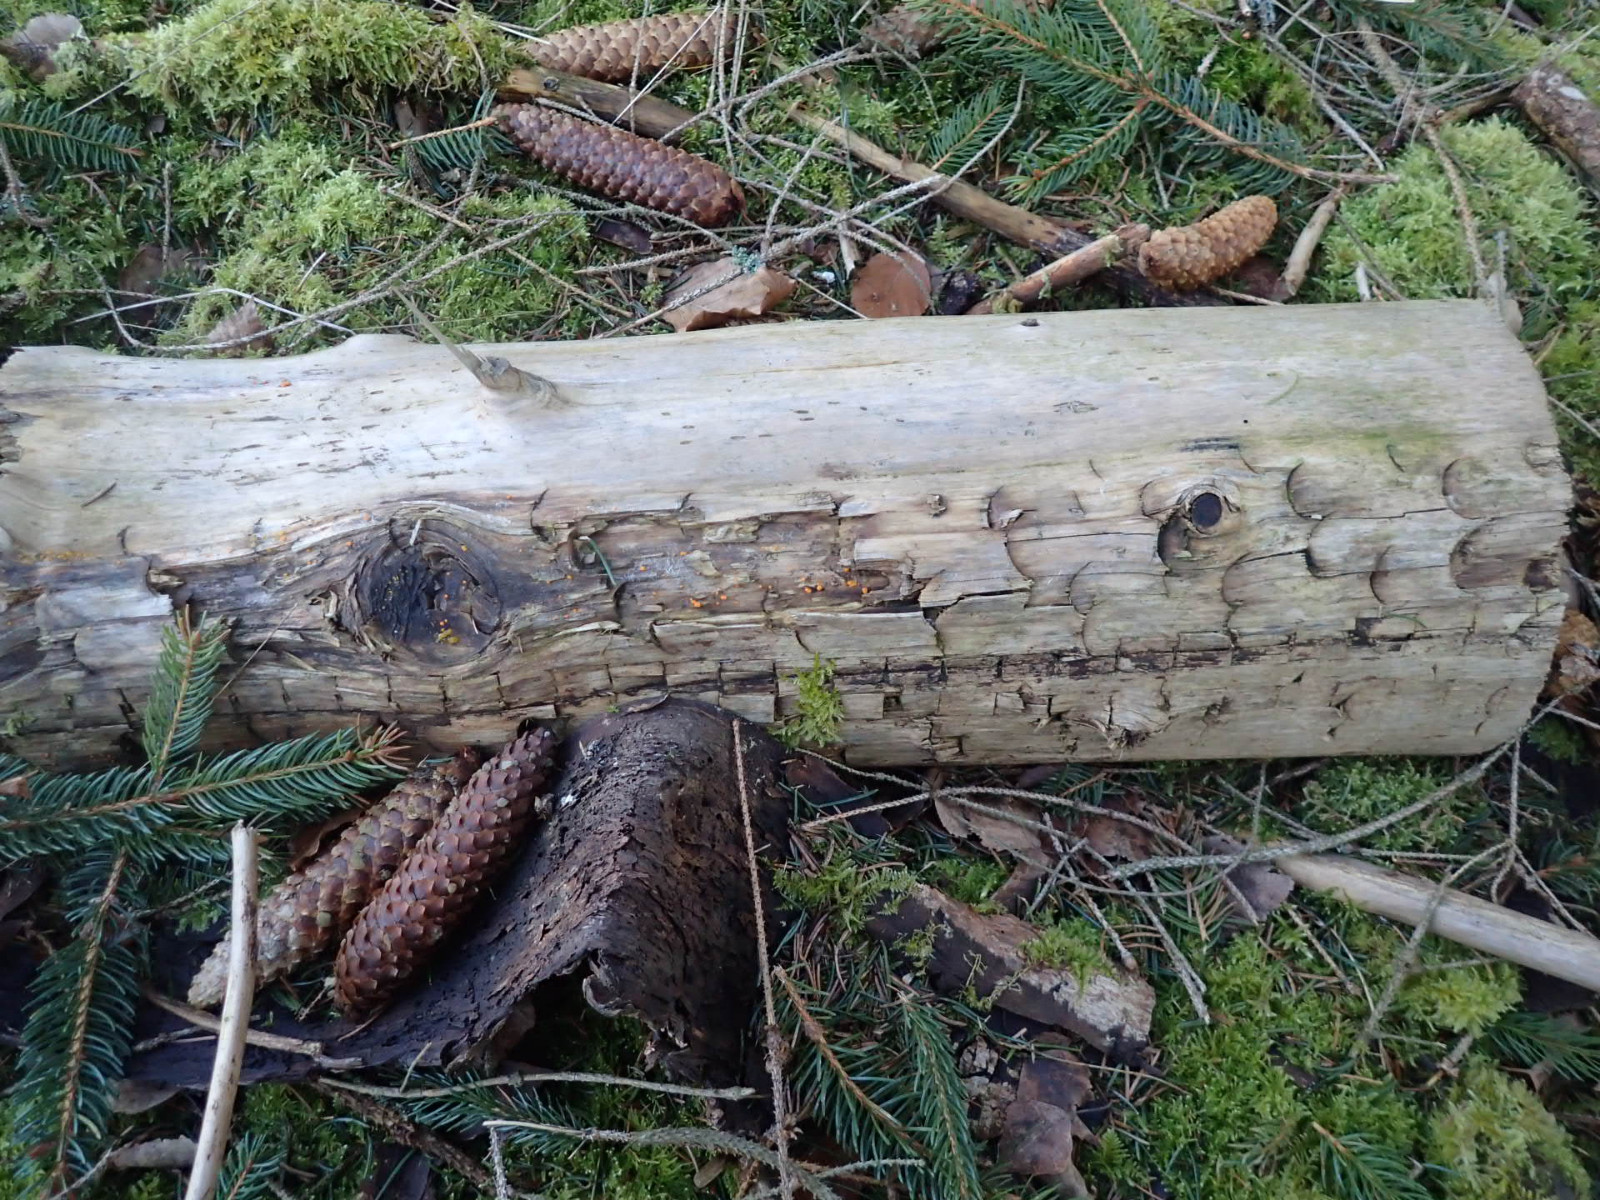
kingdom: Fungi
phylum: Basidiomycota
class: Dacrymycetes
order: Dacrymycetales
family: Dacrymycetaceae
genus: Dacrymyces
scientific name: Dacrymyces stillatus
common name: almindelig tåresvamp
